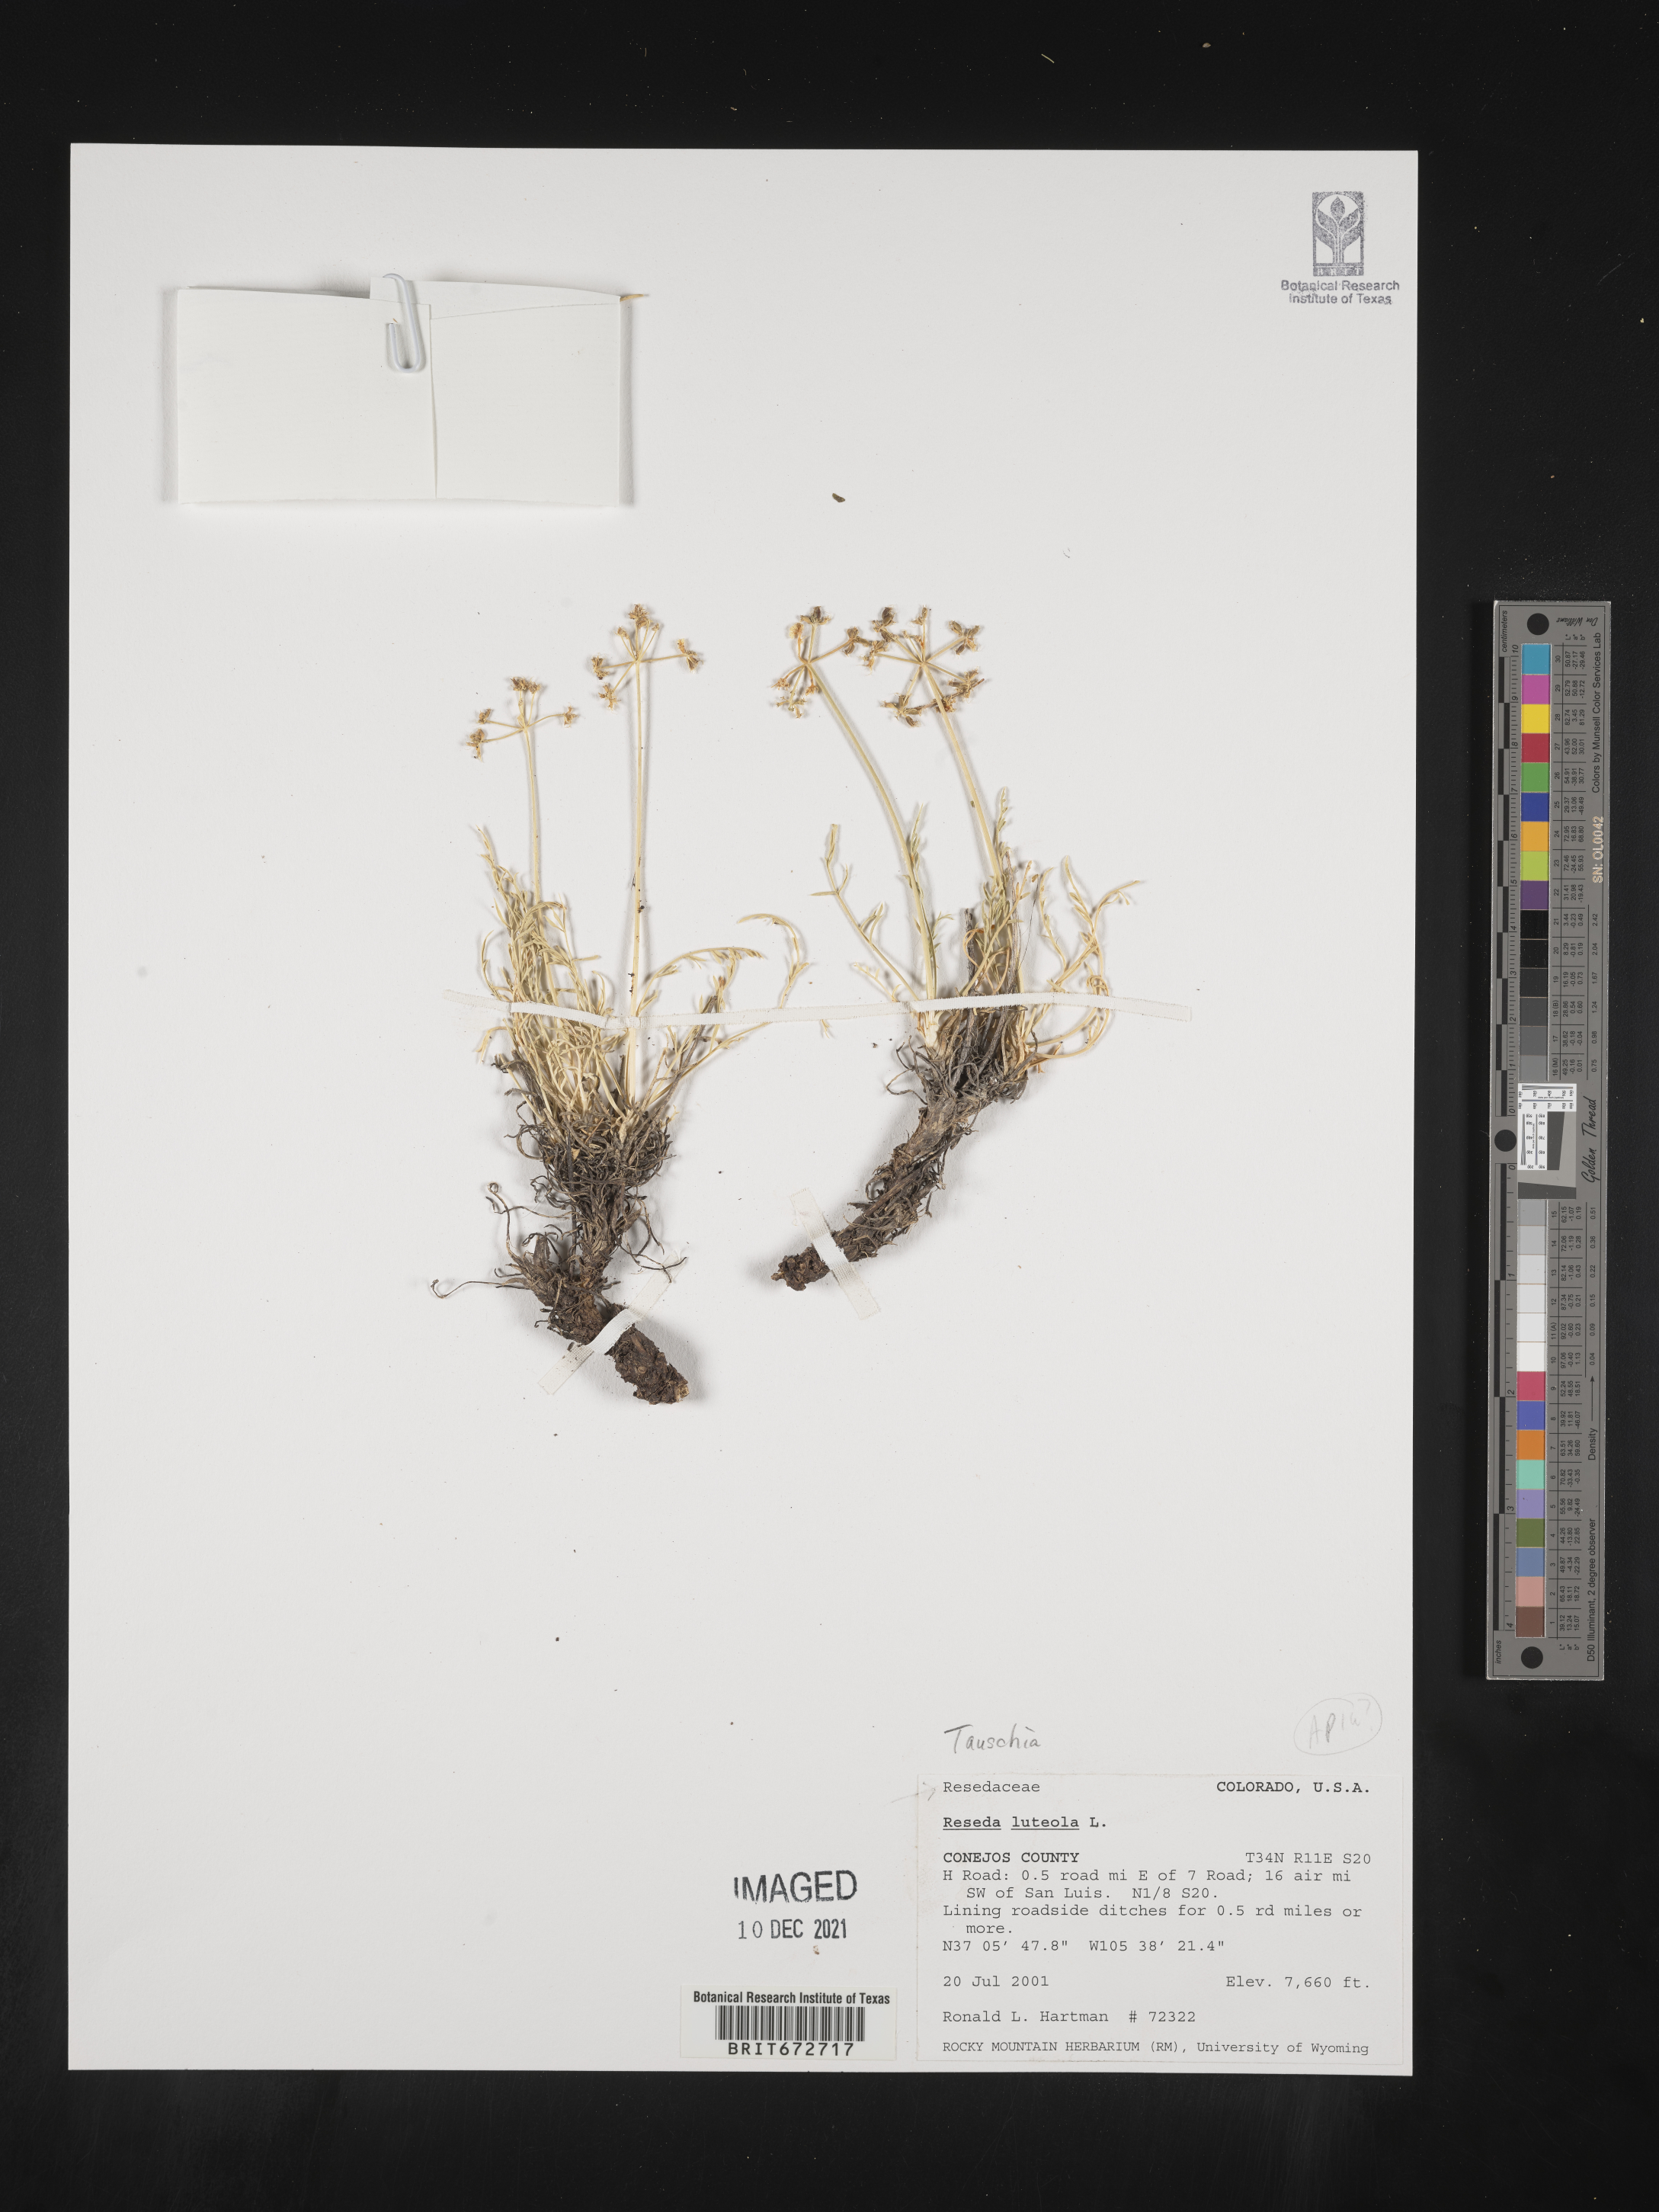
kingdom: Plantae
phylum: Tracheophyta
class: Magnoliopsida
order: Apiales
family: Apiaceae
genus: Tauschia
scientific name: Tauschia
